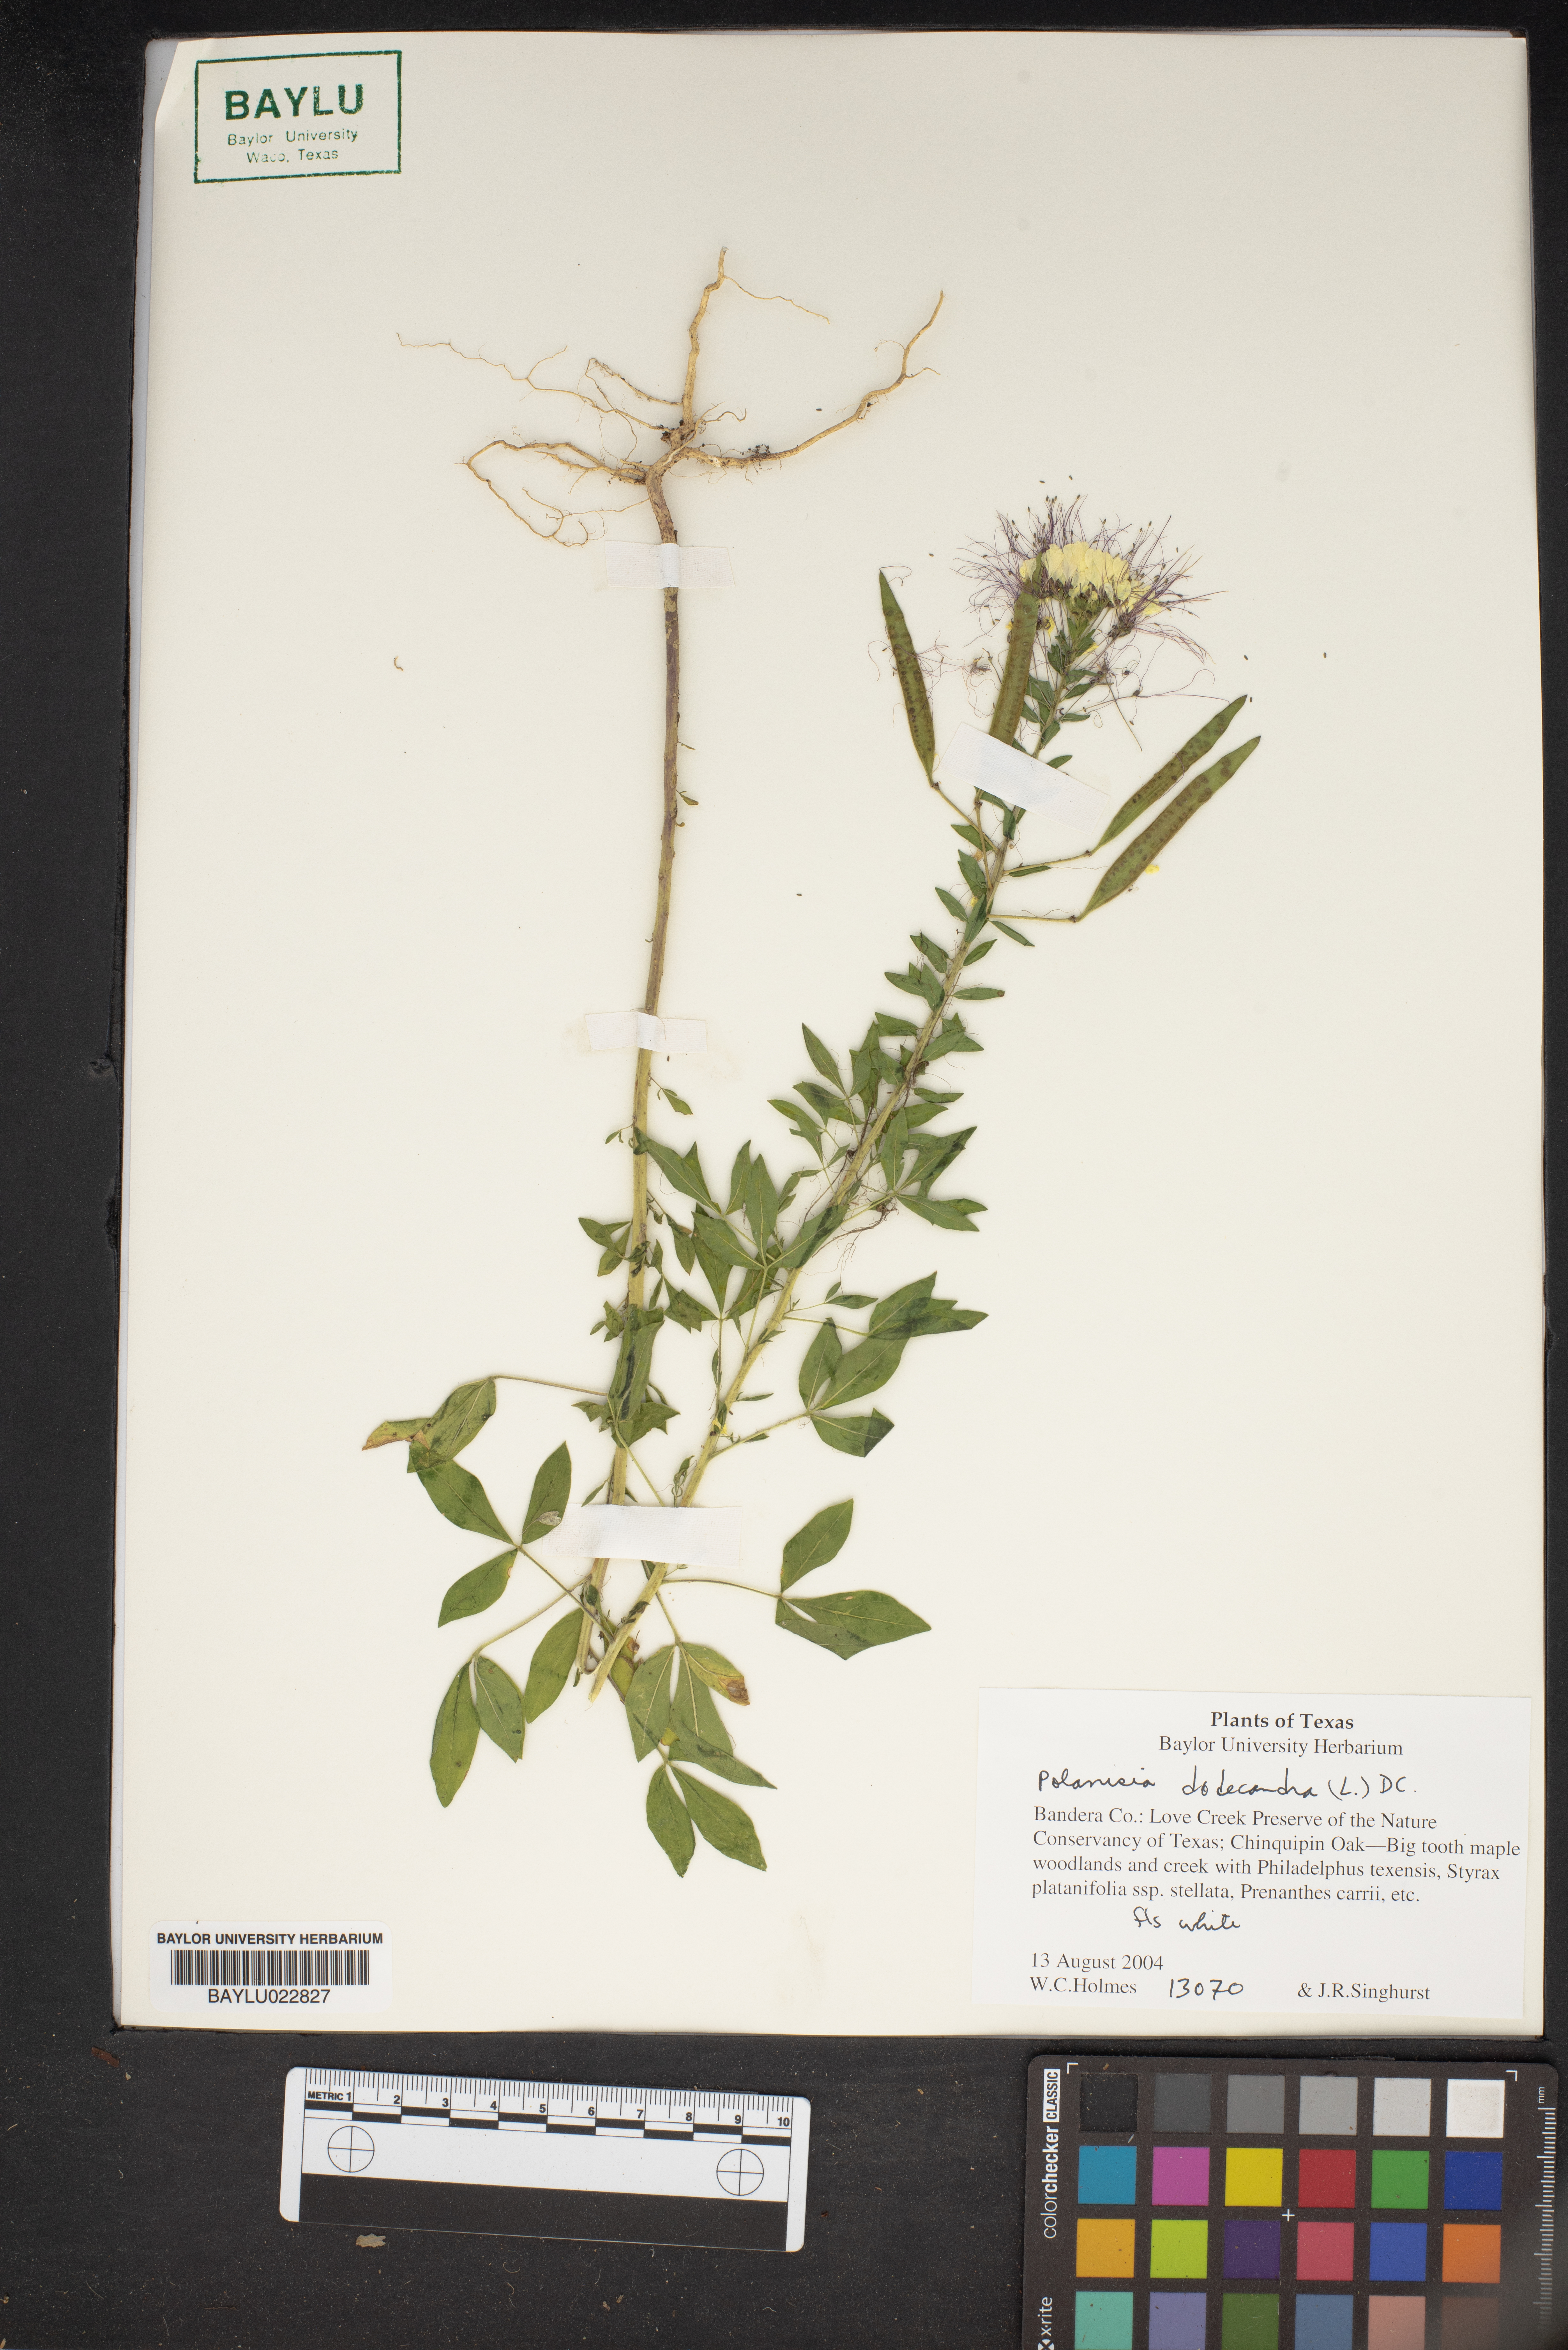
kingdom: Plantae
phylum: Tracheophyta
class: Magnoliopsida
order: Brassicales
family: Cleomaceae
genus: Polanisia
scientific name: Polanisia dodecandra
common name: Clammyweed
